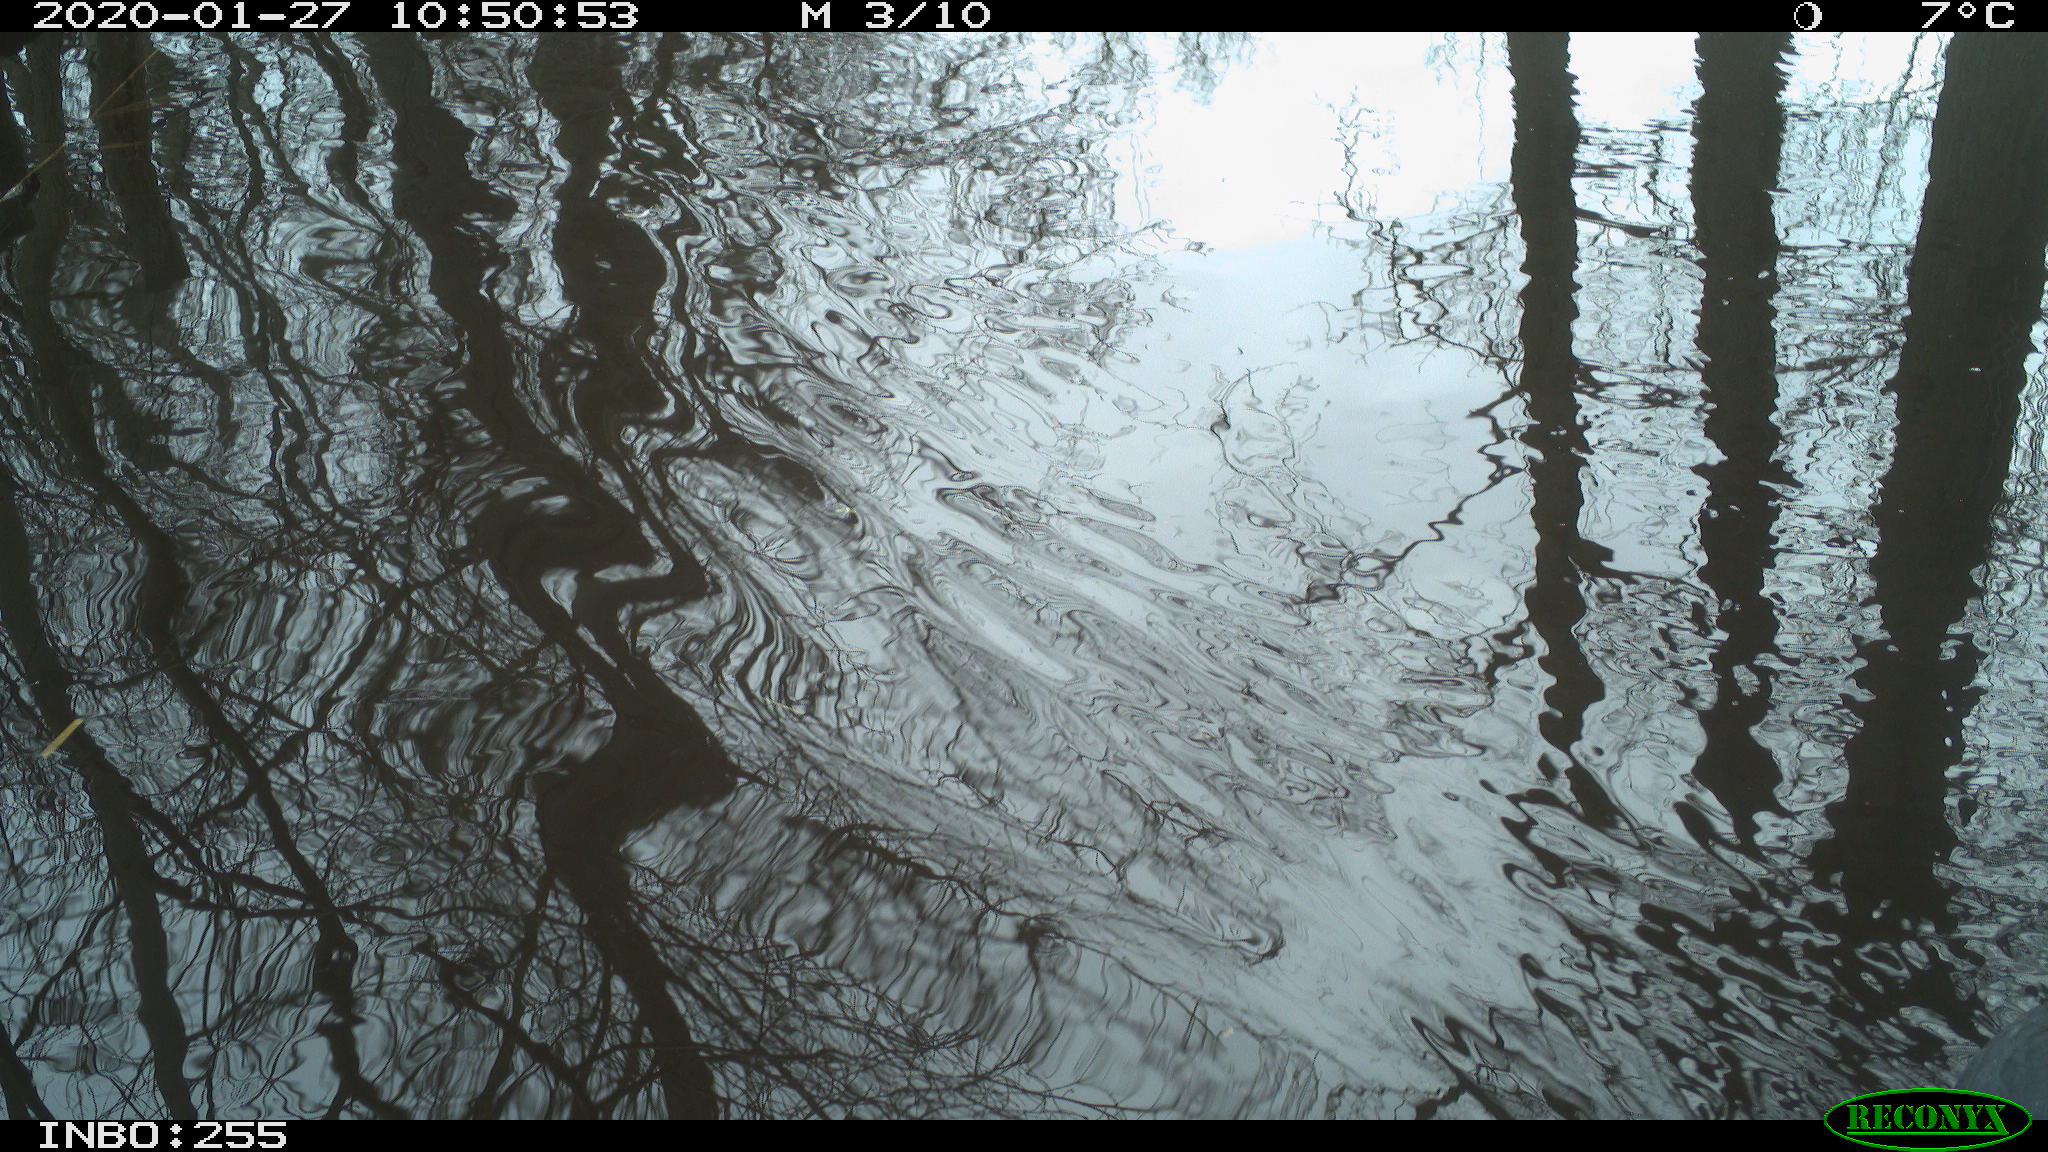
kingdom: Animalia
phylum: Chordata
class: Aves
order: Gruiformes
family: Rallidae
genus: Fulica
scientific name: Fulica atra
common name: Eurasian coot
